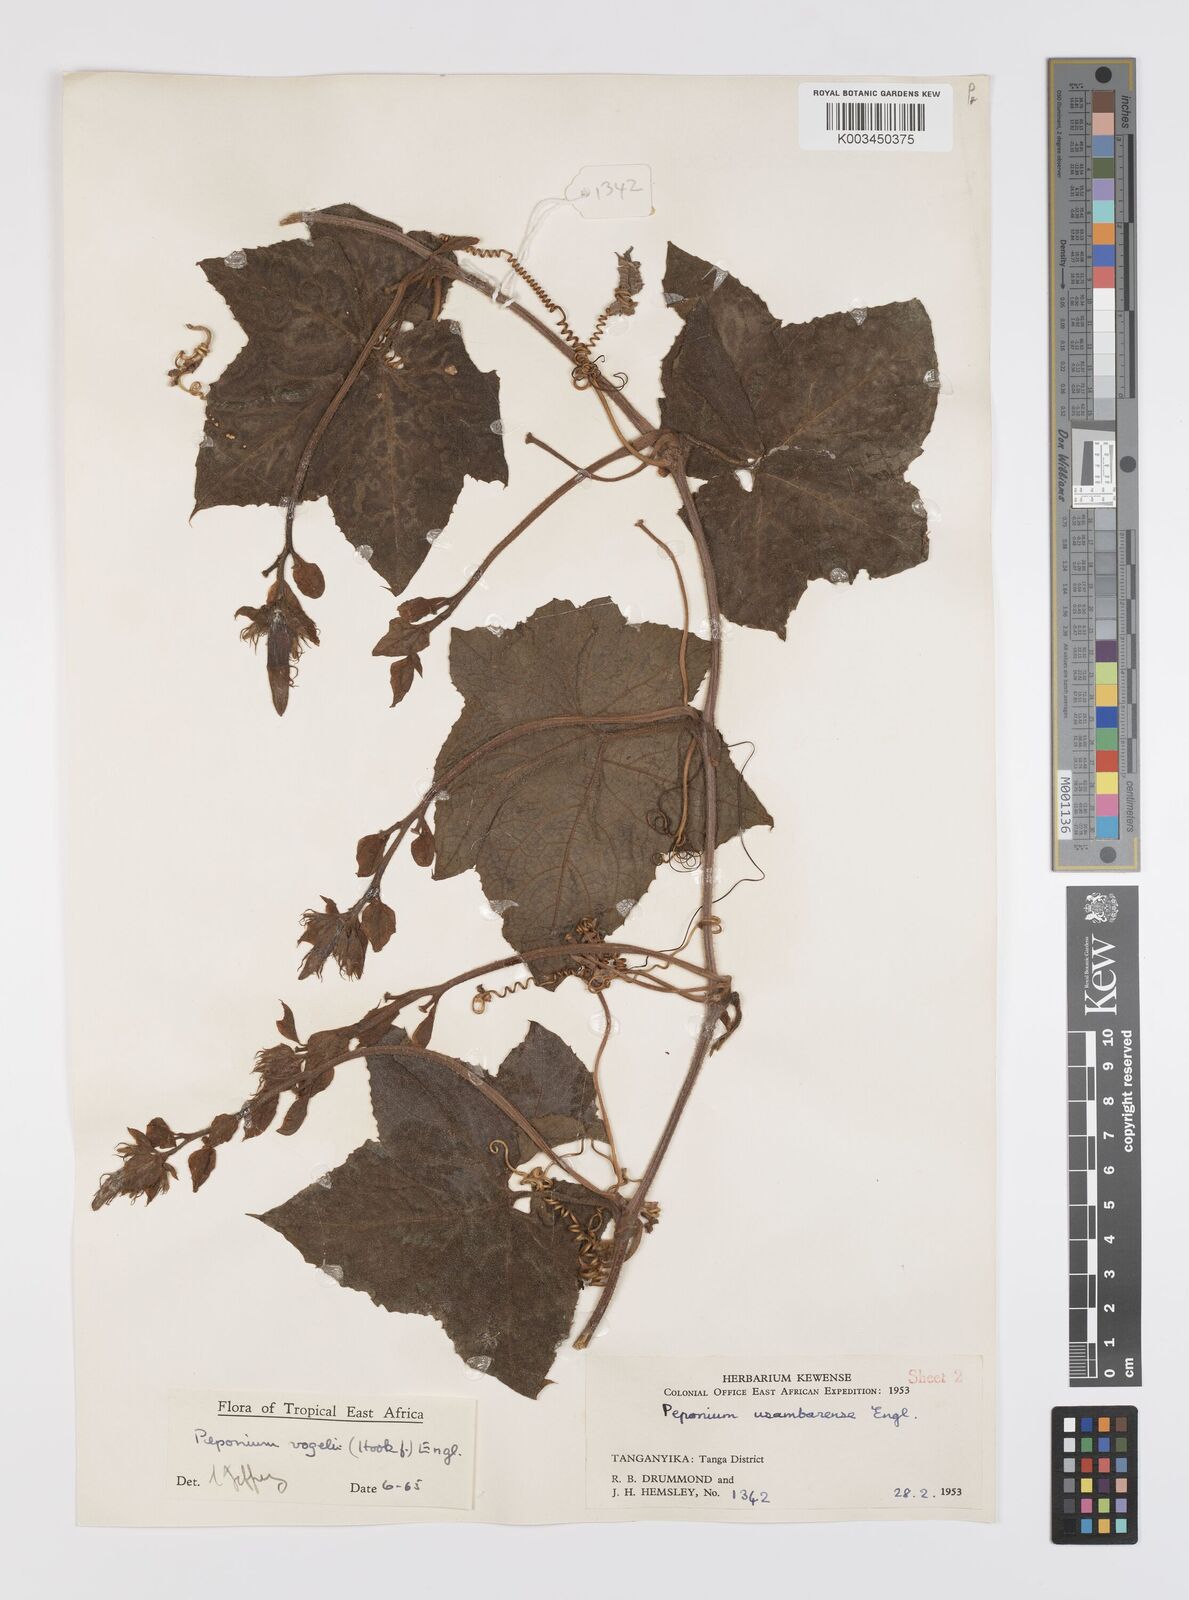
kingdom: Plantae
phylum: Tracheophyta
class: Magnoliopsida
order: Cucurbitales
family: Cucurbitaceae
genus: Peponium
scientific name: Peponium vogelii
